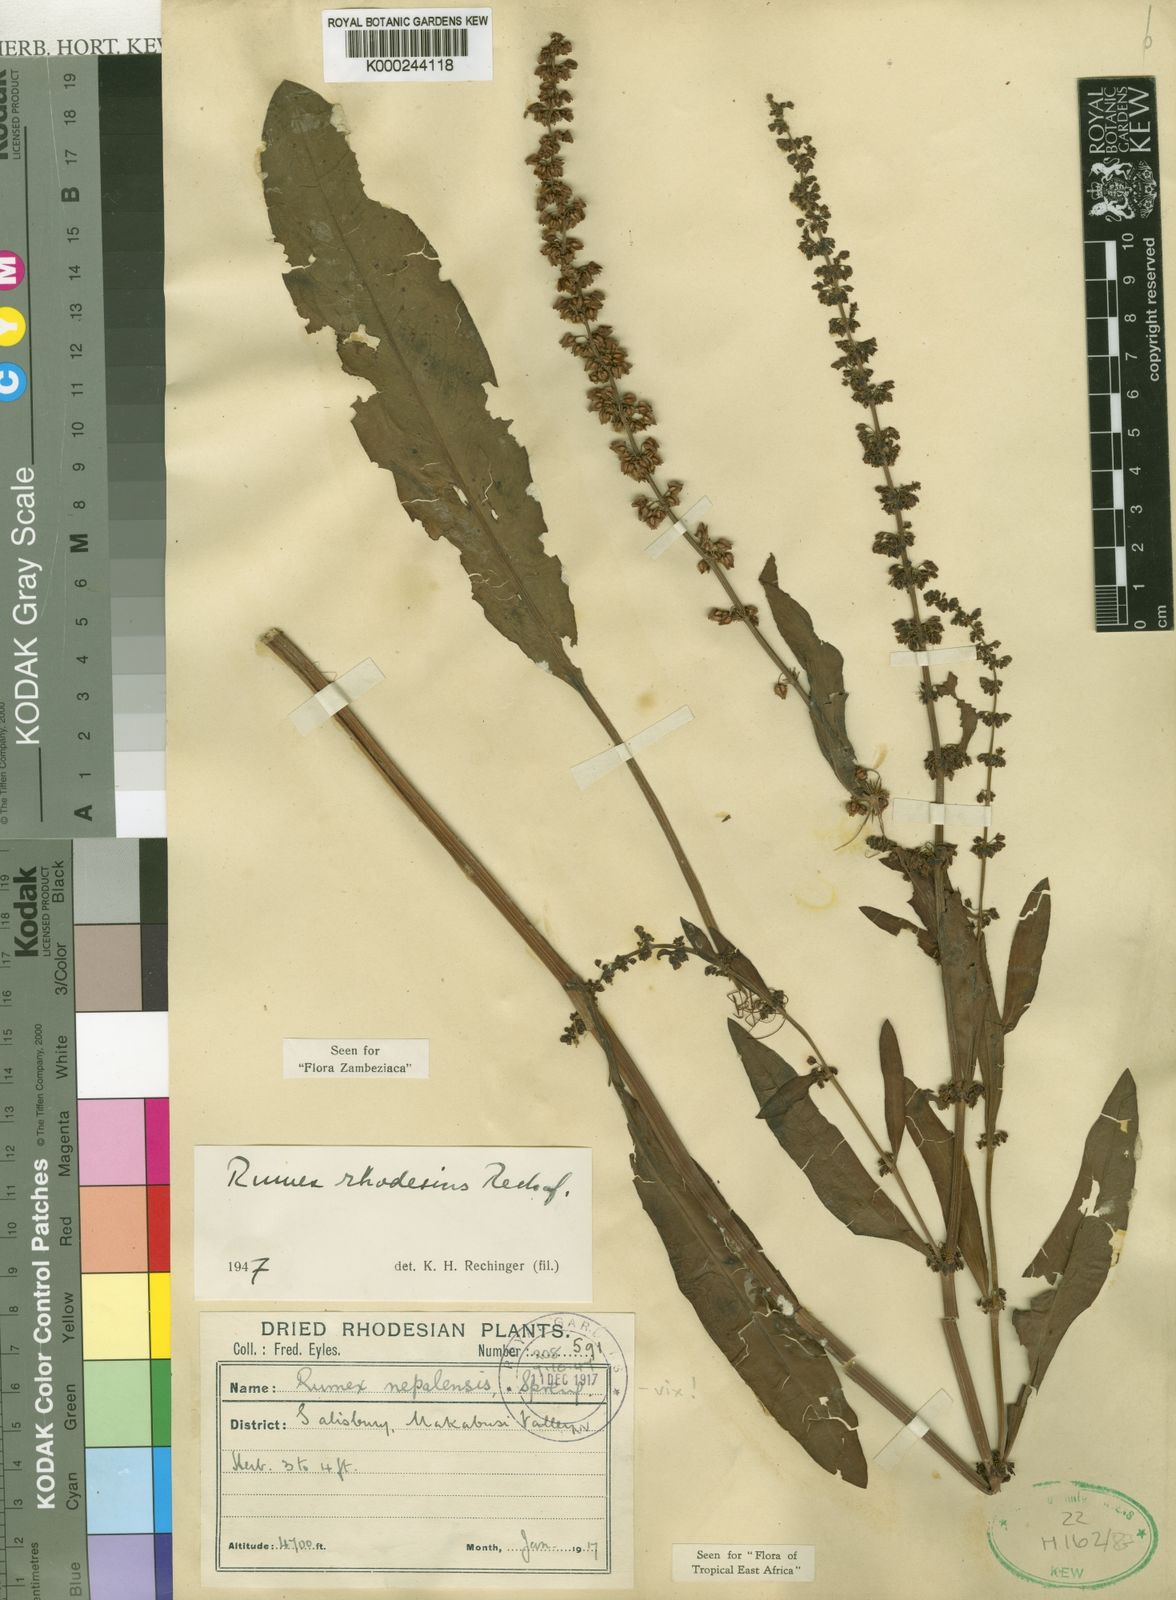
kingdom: Plantae
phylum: Tracheophyta
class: Magnoliopsida
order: Caryophyllales
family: Polygonaceae
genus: Rumex
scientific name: Rumex rhodesius
